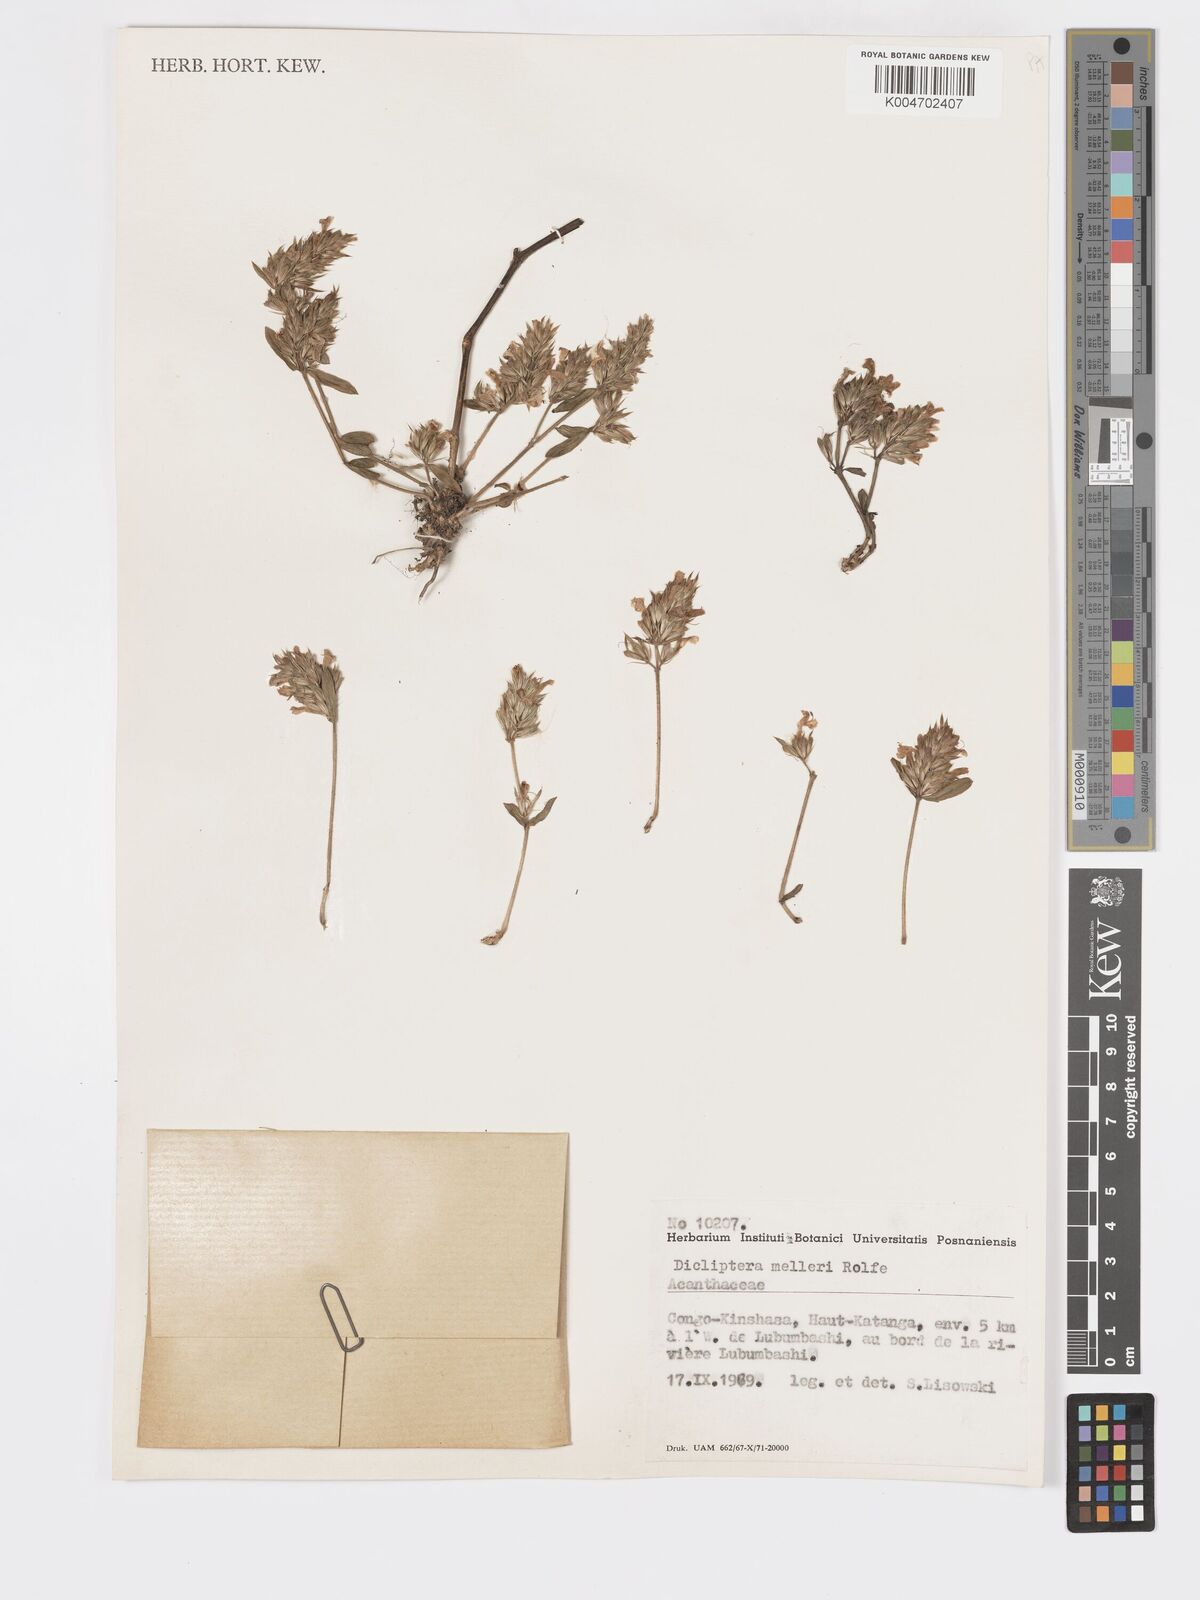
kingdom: Plantae
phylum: Tracheophyta
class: Magnoliopsida
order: Lamiales
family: Acanthaceae
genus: Dicliptera
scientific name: Dicliptera melleri
